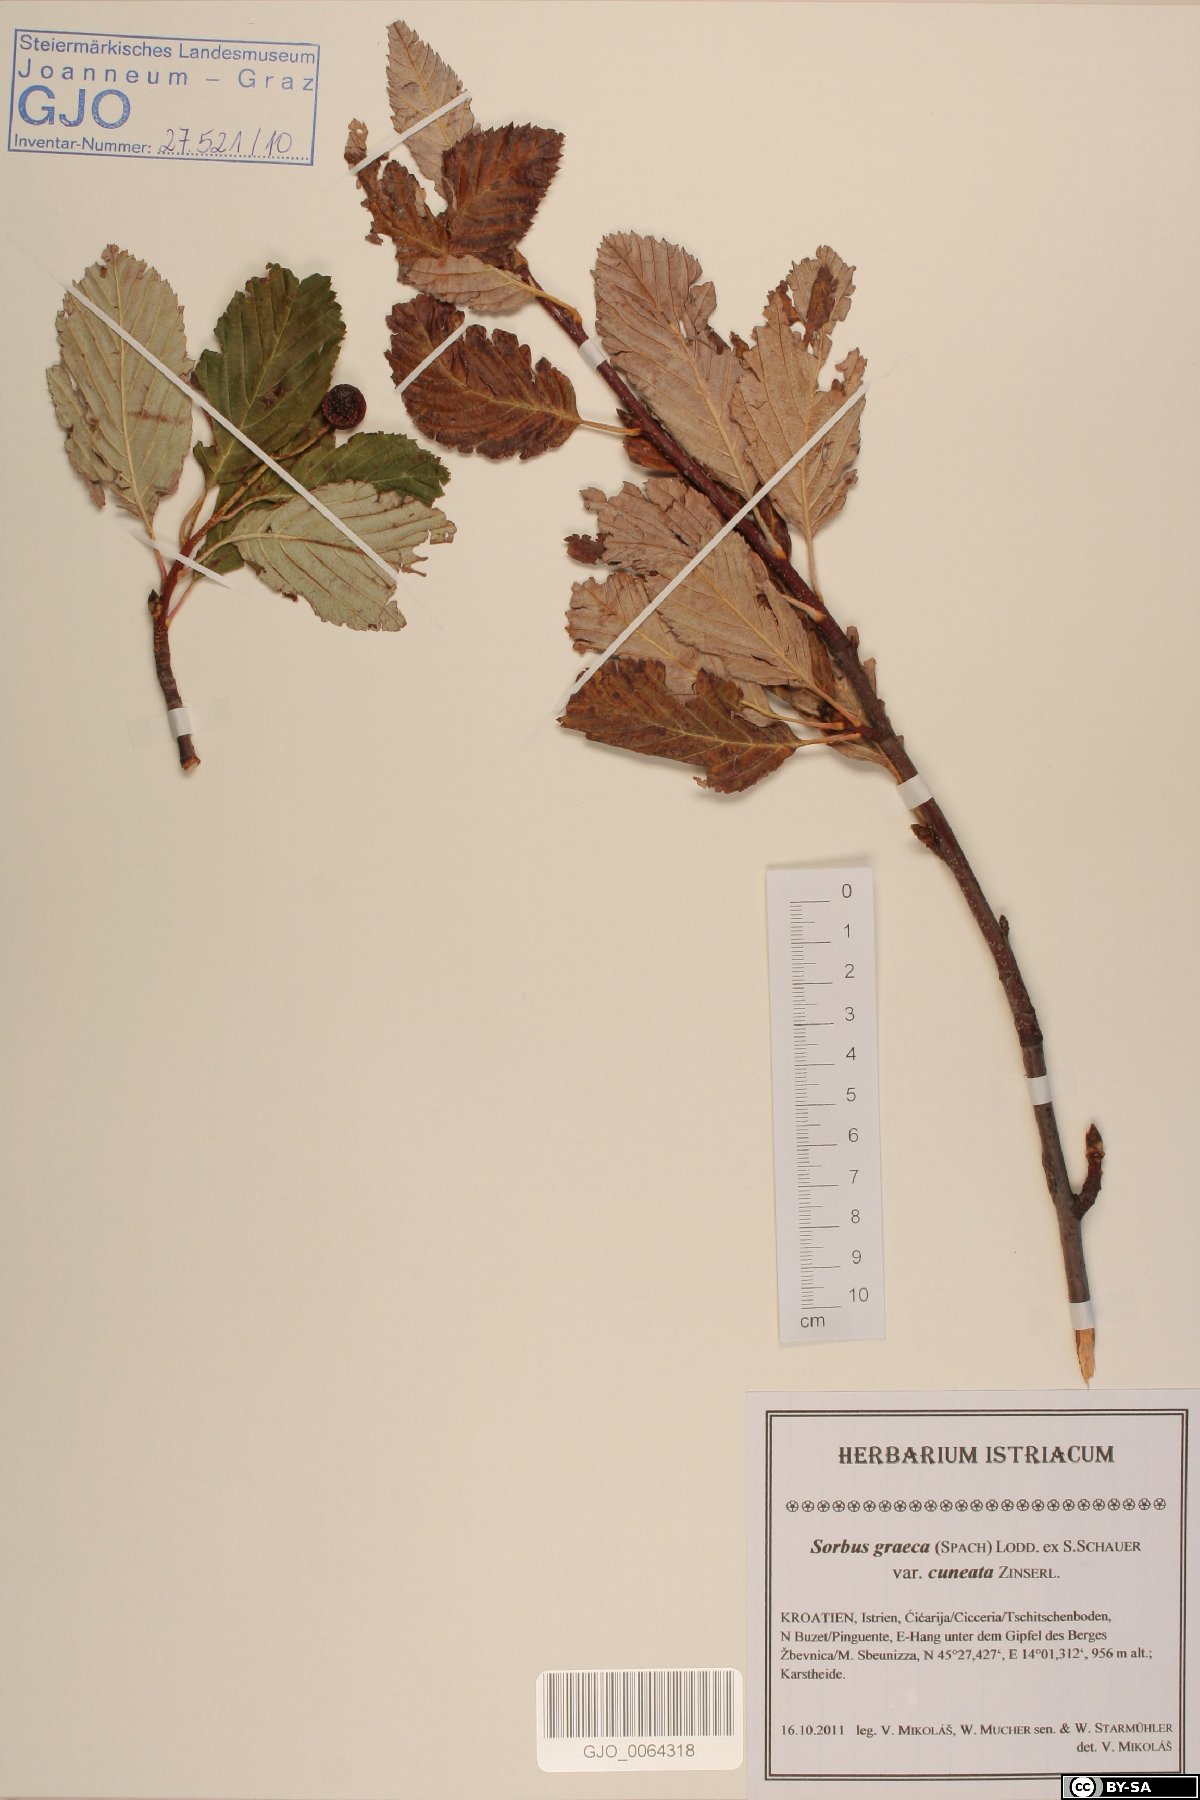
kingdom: Plantae
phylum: Tracheophyta
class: Magnoliopsida
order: Rosales
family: Rosaceae
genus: Aria
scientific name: Aria graeca
